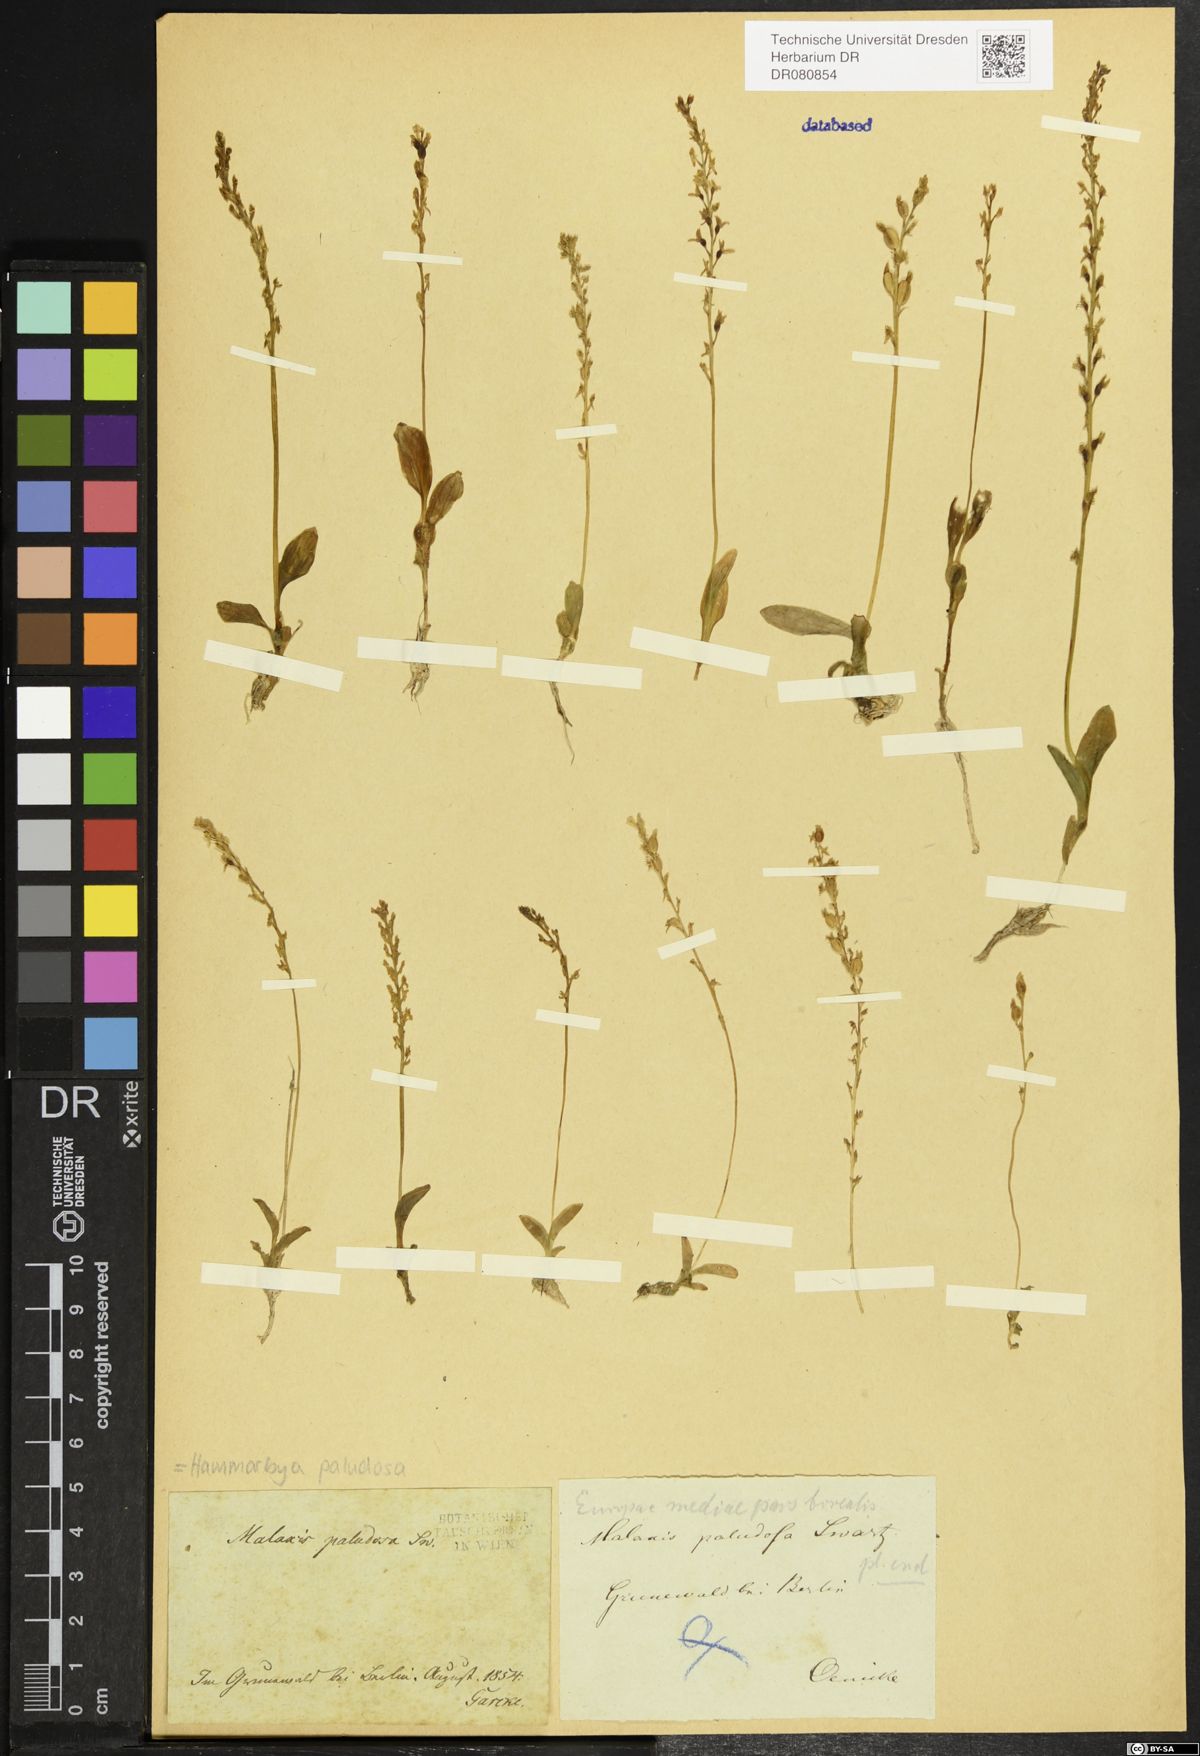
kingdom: Plantae
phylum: Tracheophyta
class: Liliopsida
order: Asparagales
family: Orchidaceae
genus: Hammarbya
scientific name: Hammarbya paludosa
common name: Bog orchid
